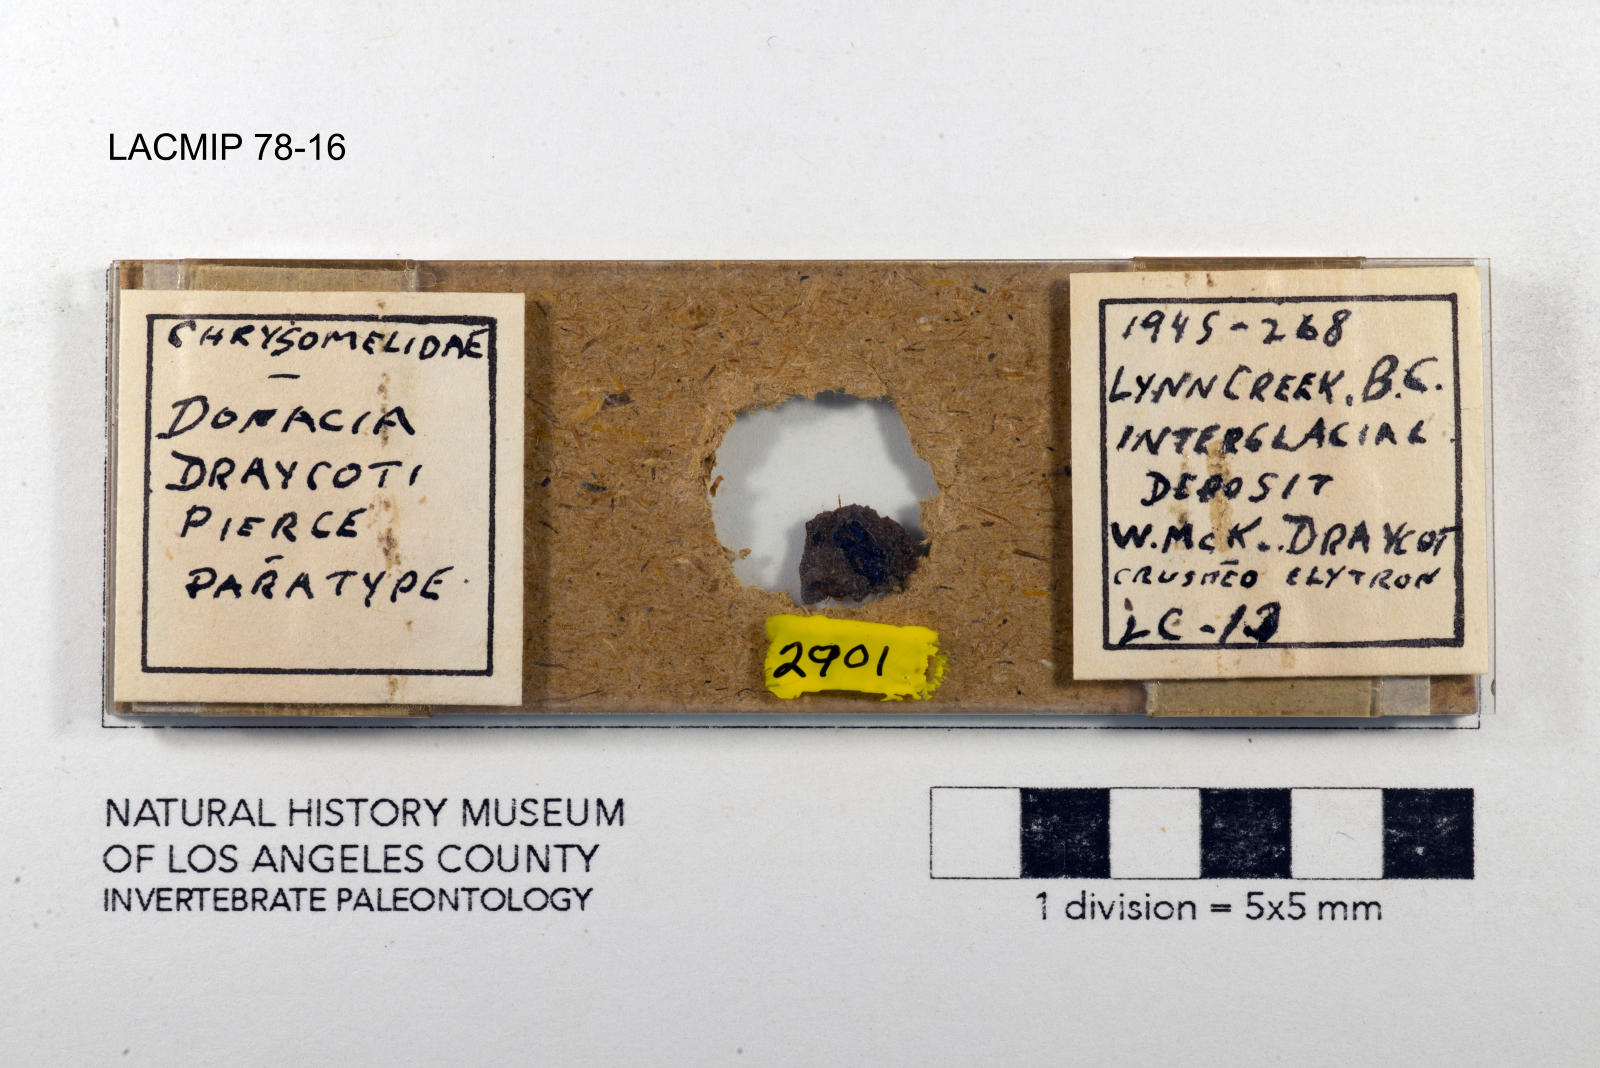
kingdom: Animalia
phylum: Arthropoda
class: Insecta
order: Coleoptera
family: Chrysomelidae
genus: Donacia
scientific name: Donacia draycoti
